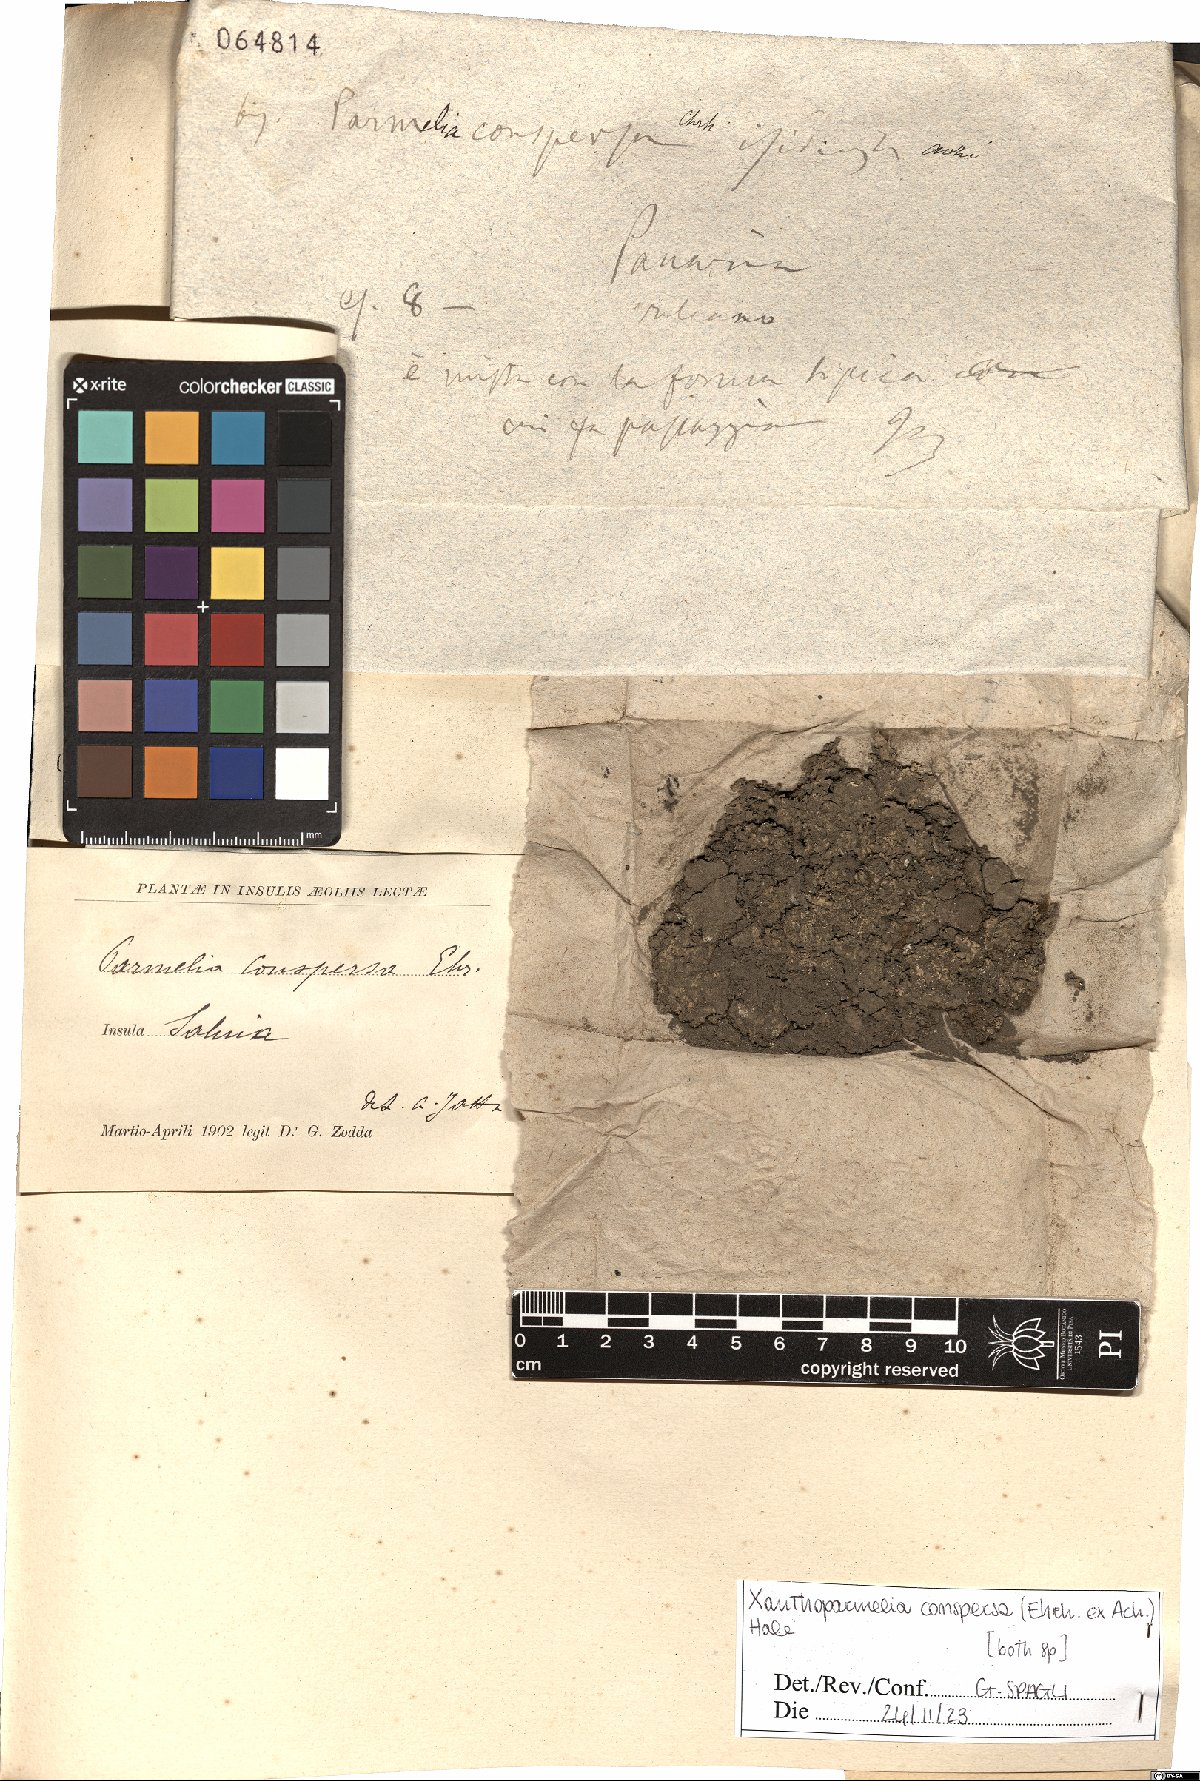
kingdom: Fungi
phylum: Ascomycota
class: Lecanoromycetes
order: Lecanorales
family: Parmeliaceae
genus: Xanthoparmelia
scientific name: Xanthoparmelia conspersa
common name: Peppered rock shield
